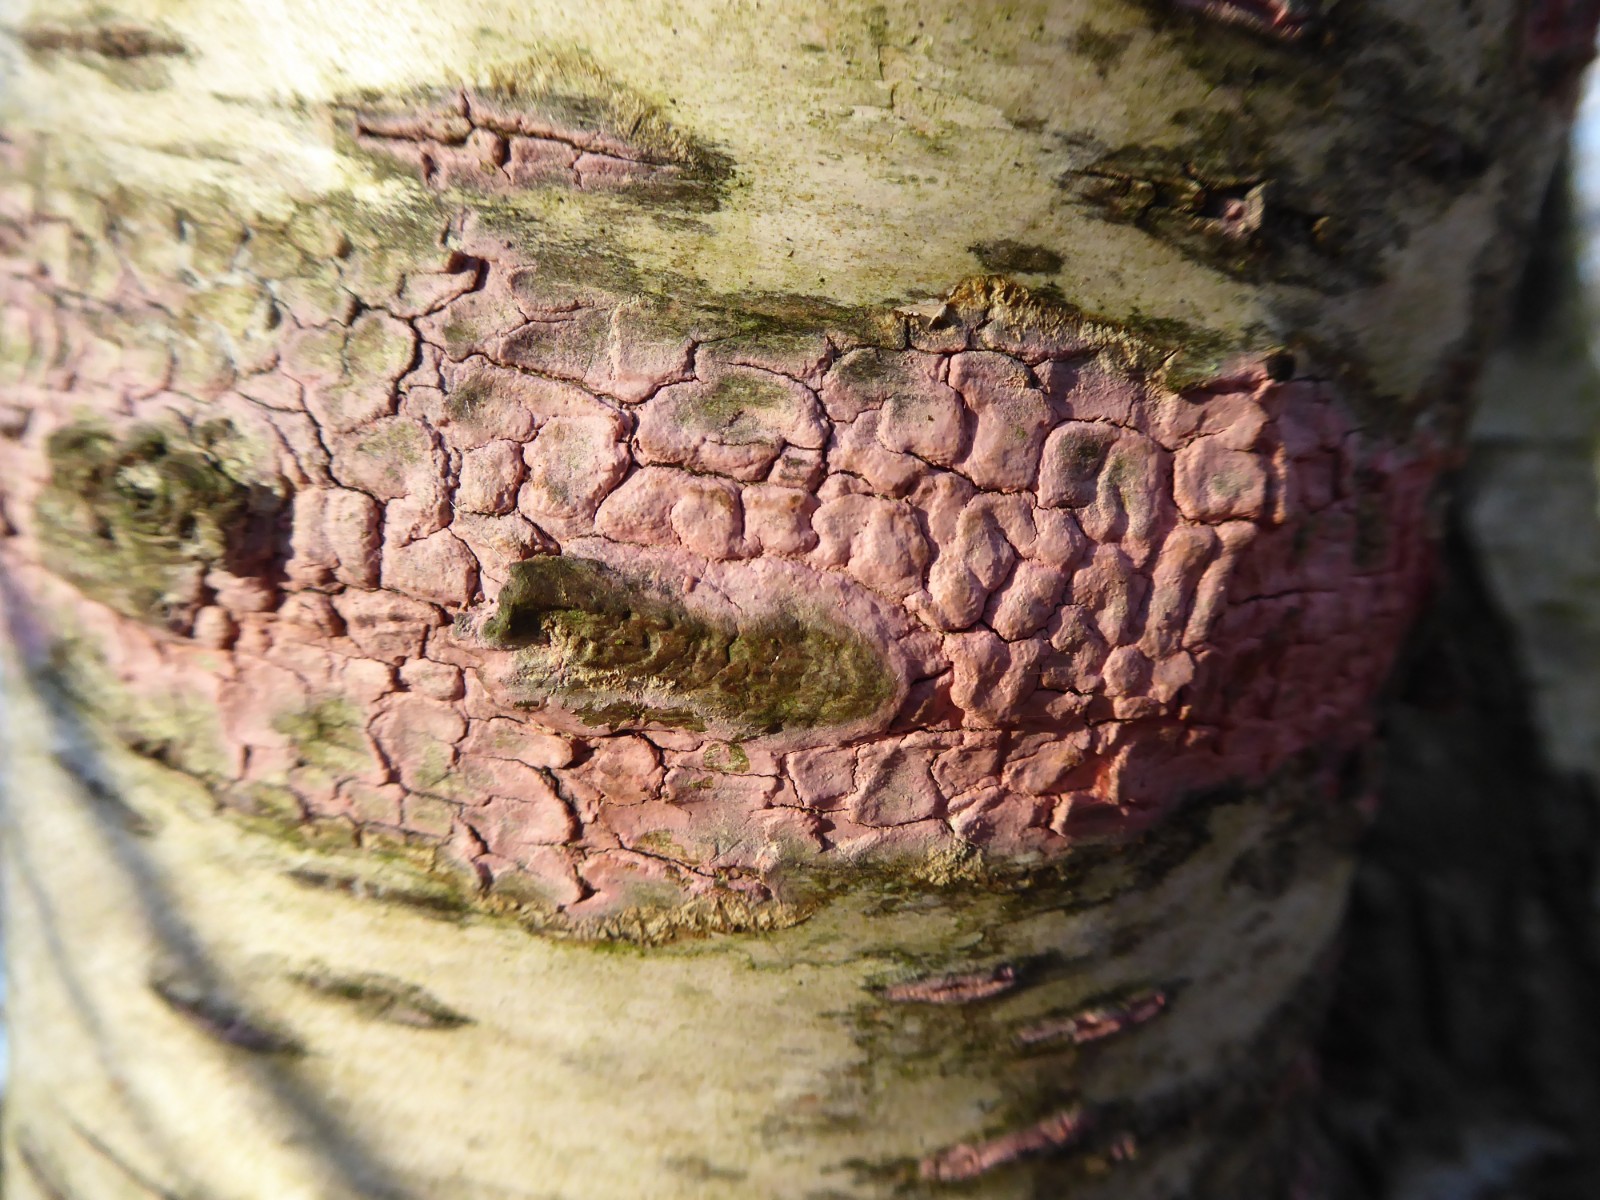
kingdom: Fungi
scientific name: Fungi
